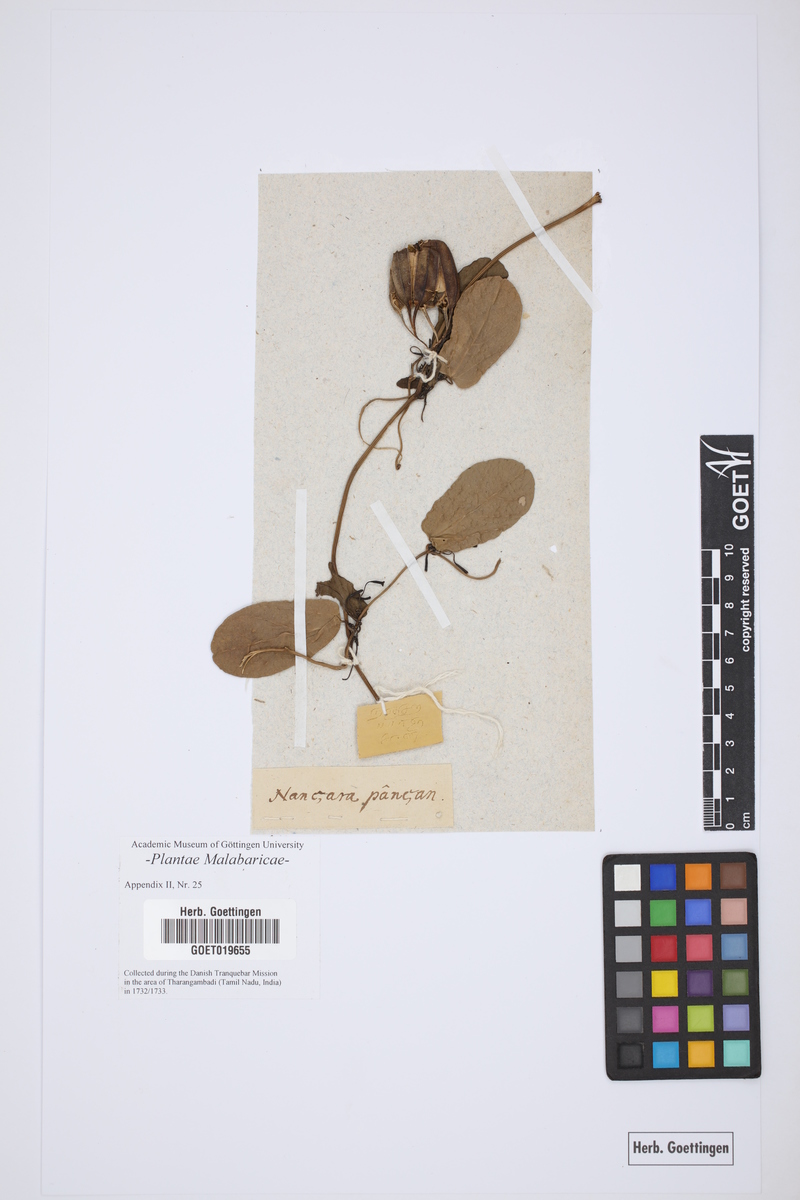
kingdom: Plantae
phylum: Tracheophyta
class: Magnoliopsida
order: Gentianales
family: Apocynaceae
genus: Vincetoxicum
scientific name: Vincetoxicum indicum
